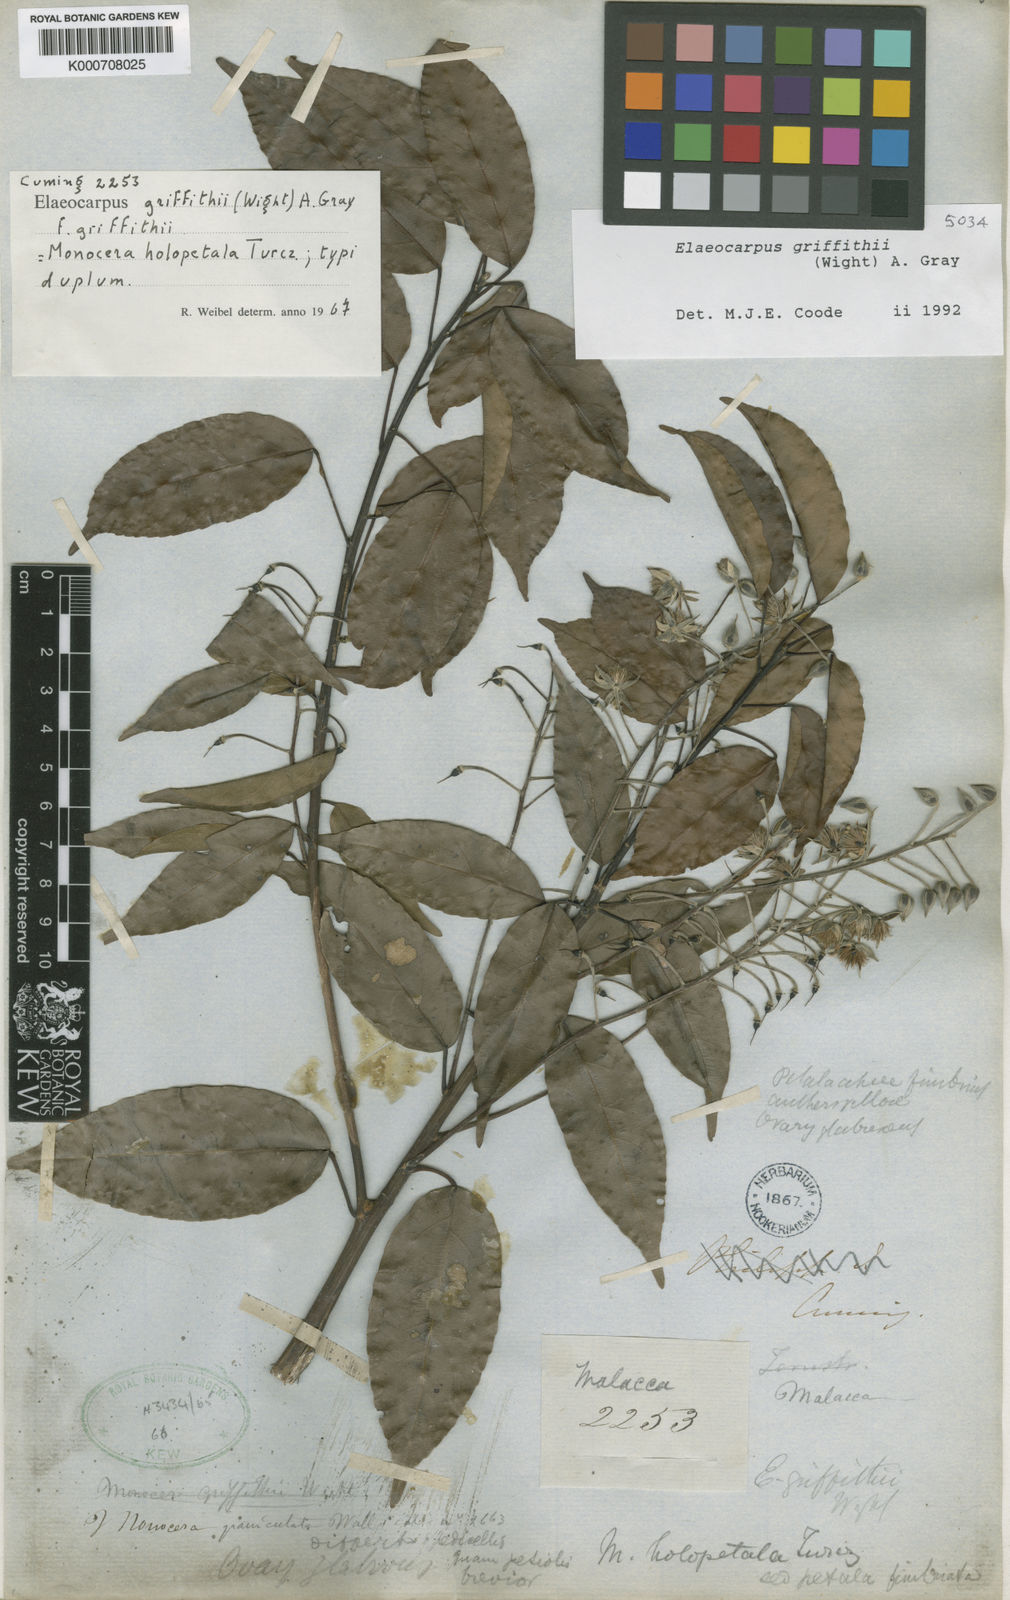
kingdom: Plantae
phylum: Tracheophyta
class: Magnoliopsida
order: Oxalidales
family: Elaeocarpaceae
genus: Elaeocarpus
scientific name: Elaeocarpus griffithii
